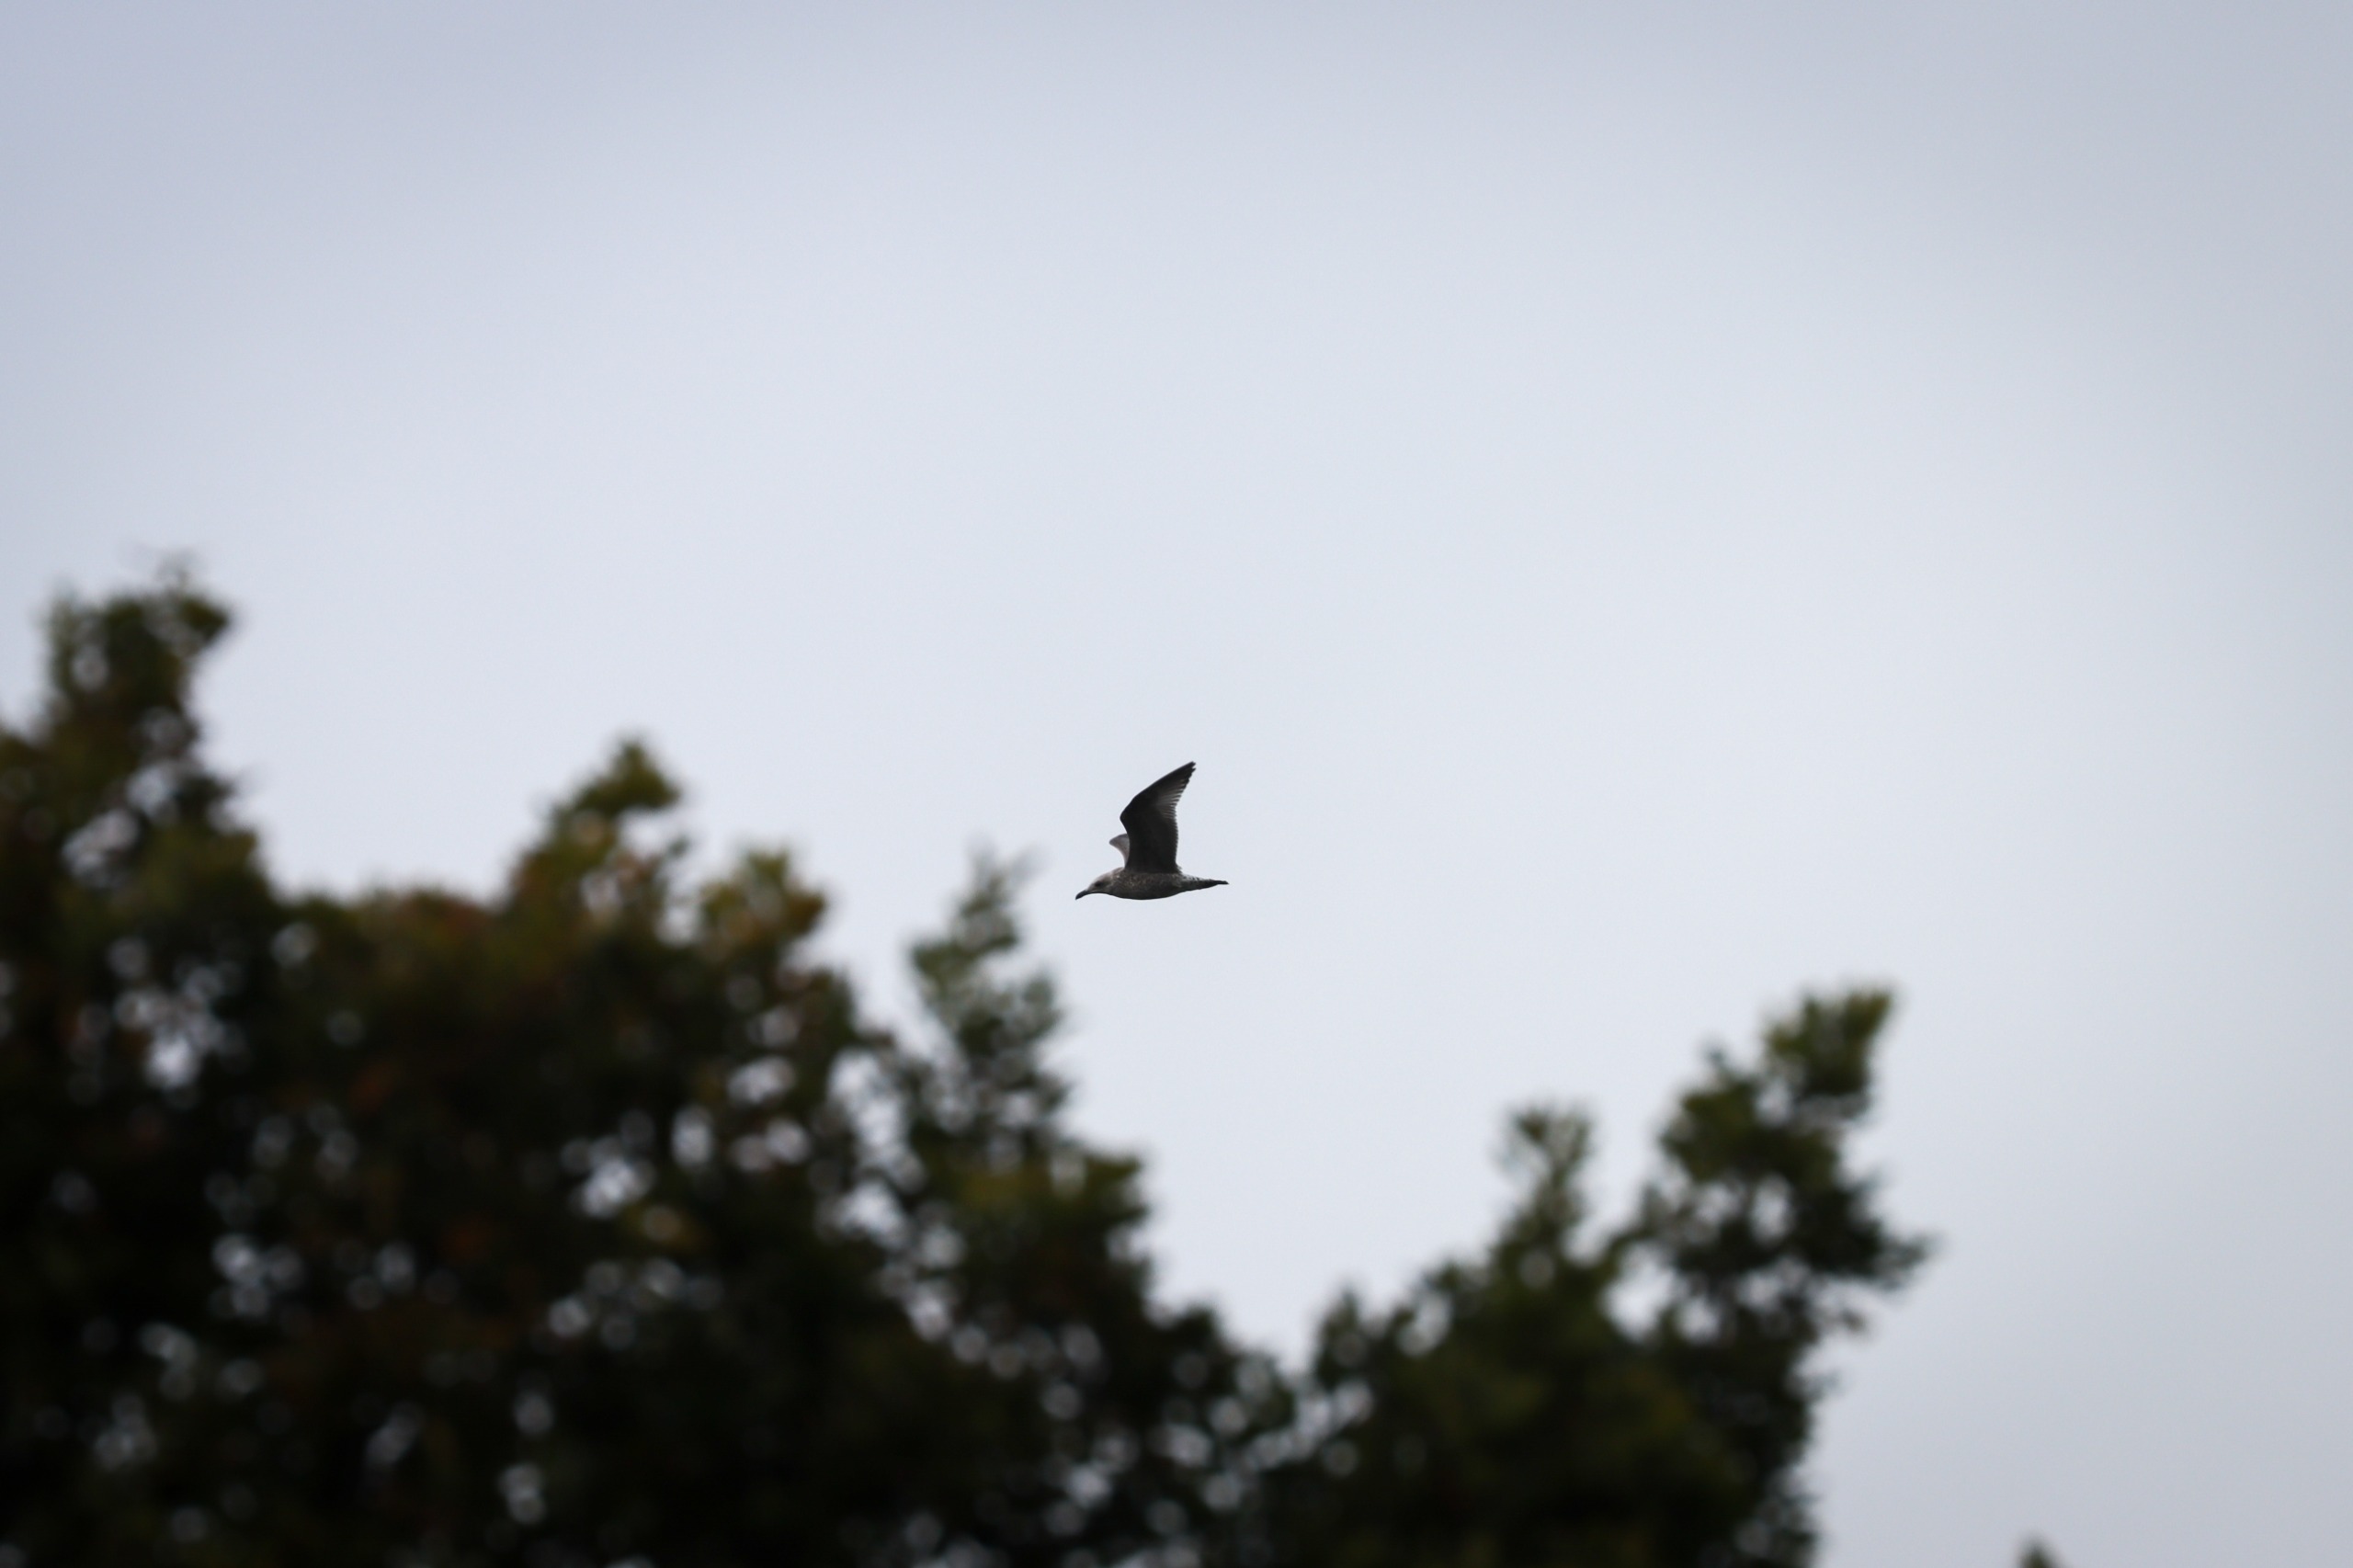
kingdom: Animalia
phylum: Chordata
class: Aves
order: Charadriiformes
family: Laridae
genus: Larus
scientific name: Larus argentatus
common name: Sølvmåge
